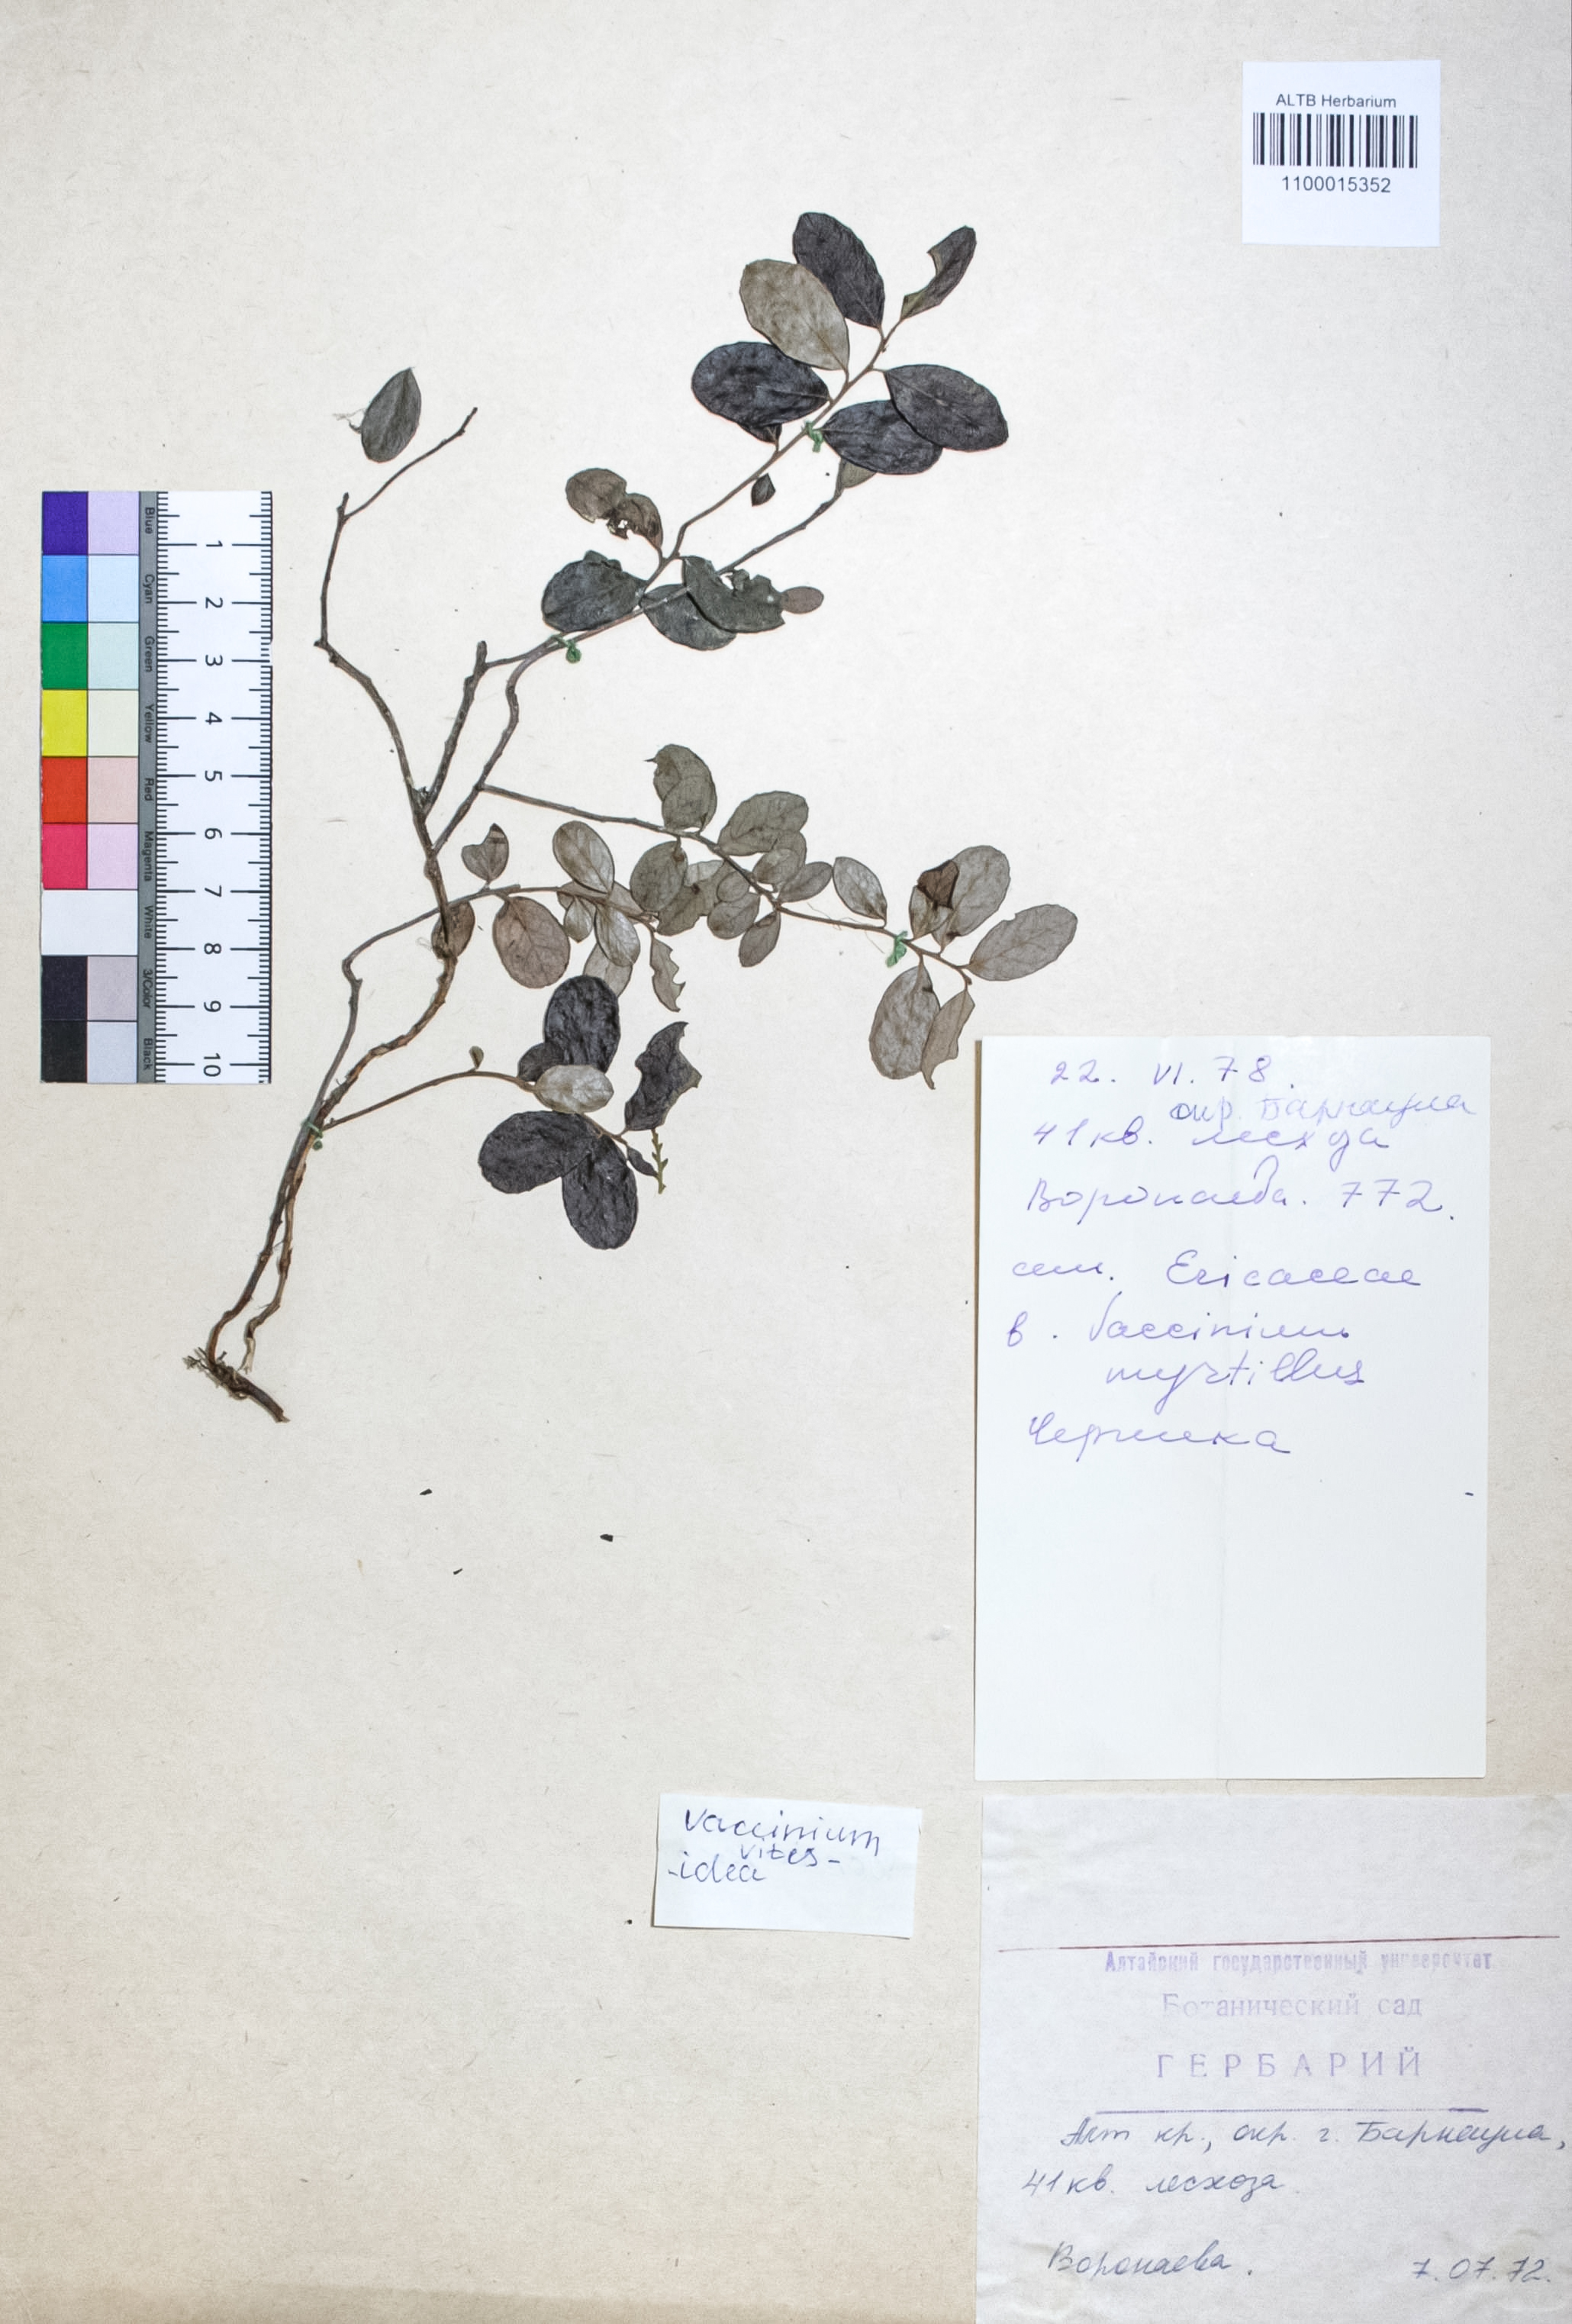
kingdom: Plantae
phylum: Tracheophyta
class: Magnoliopsida
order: Ericales
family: Ericaceae
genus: Vaccinium
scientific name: Vaccinium vitis-idaea
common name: Cowberry
